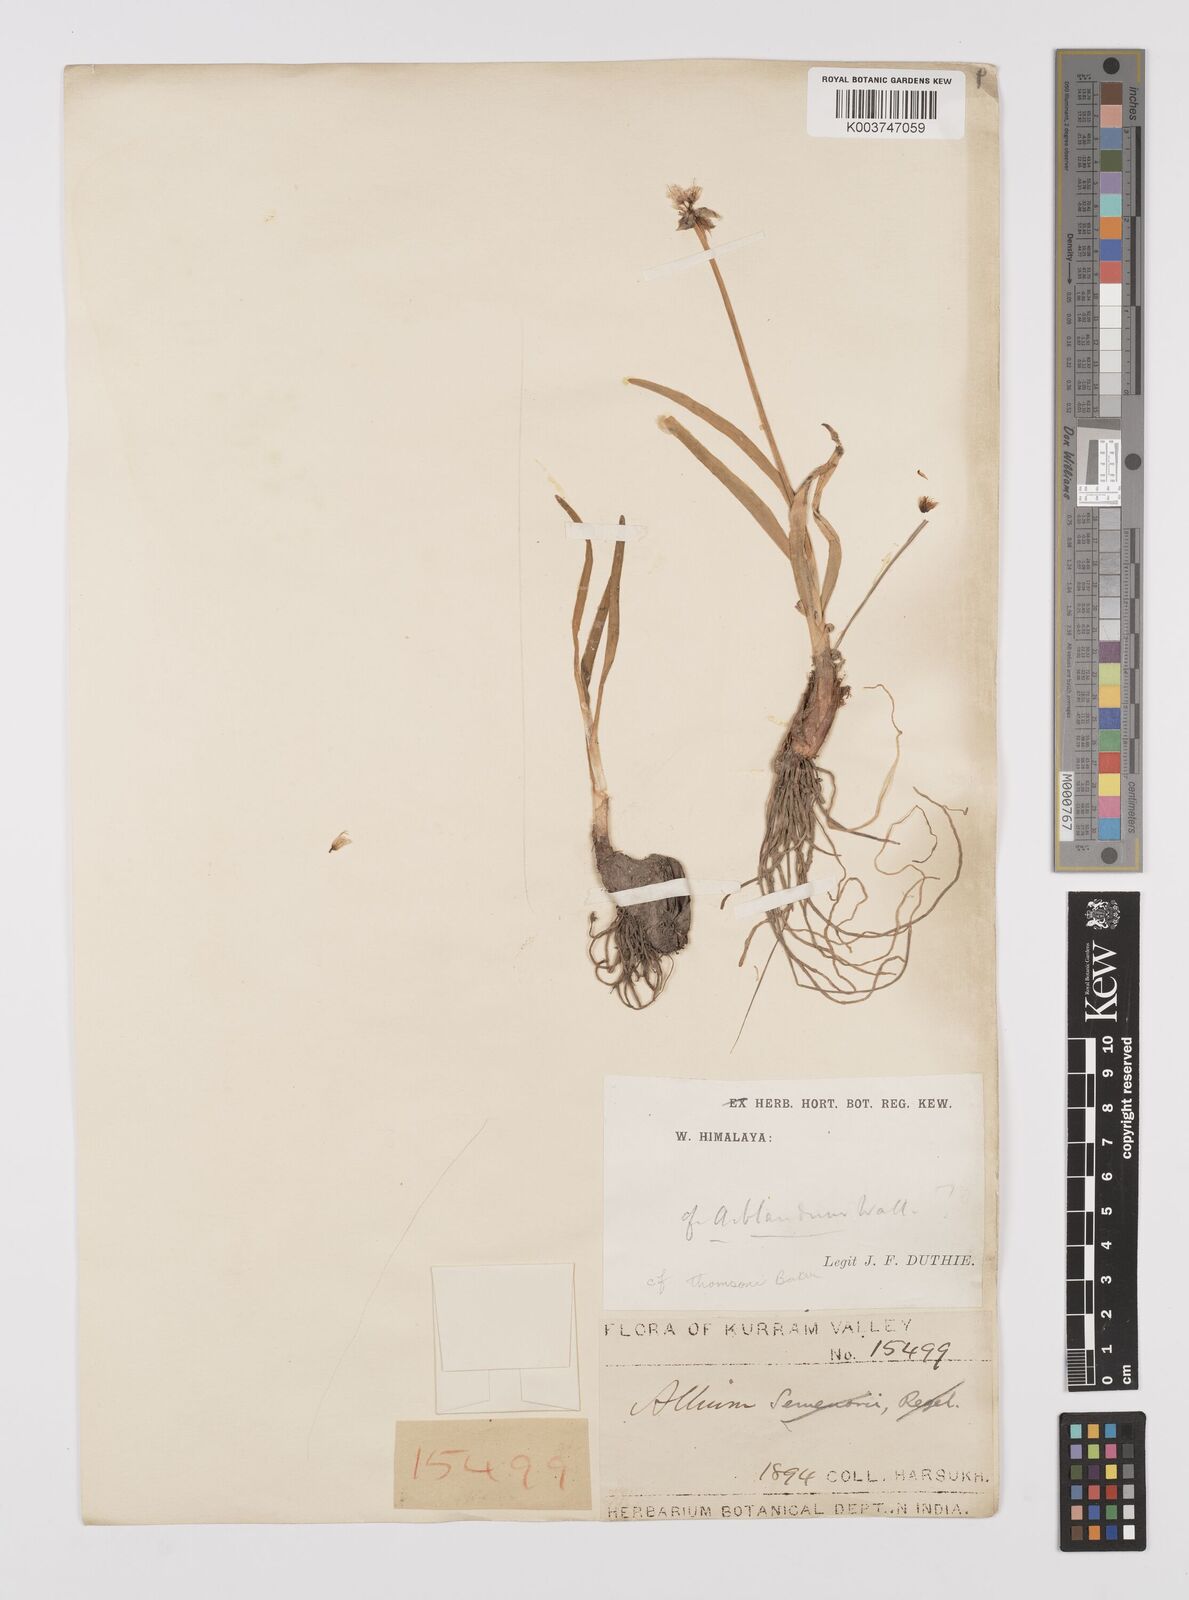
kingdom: Plantae
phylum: Tracheophyta
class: Liliopsida
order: Asparagales
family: Amaryllidaceae
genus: Allium
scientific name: Allium blandum
